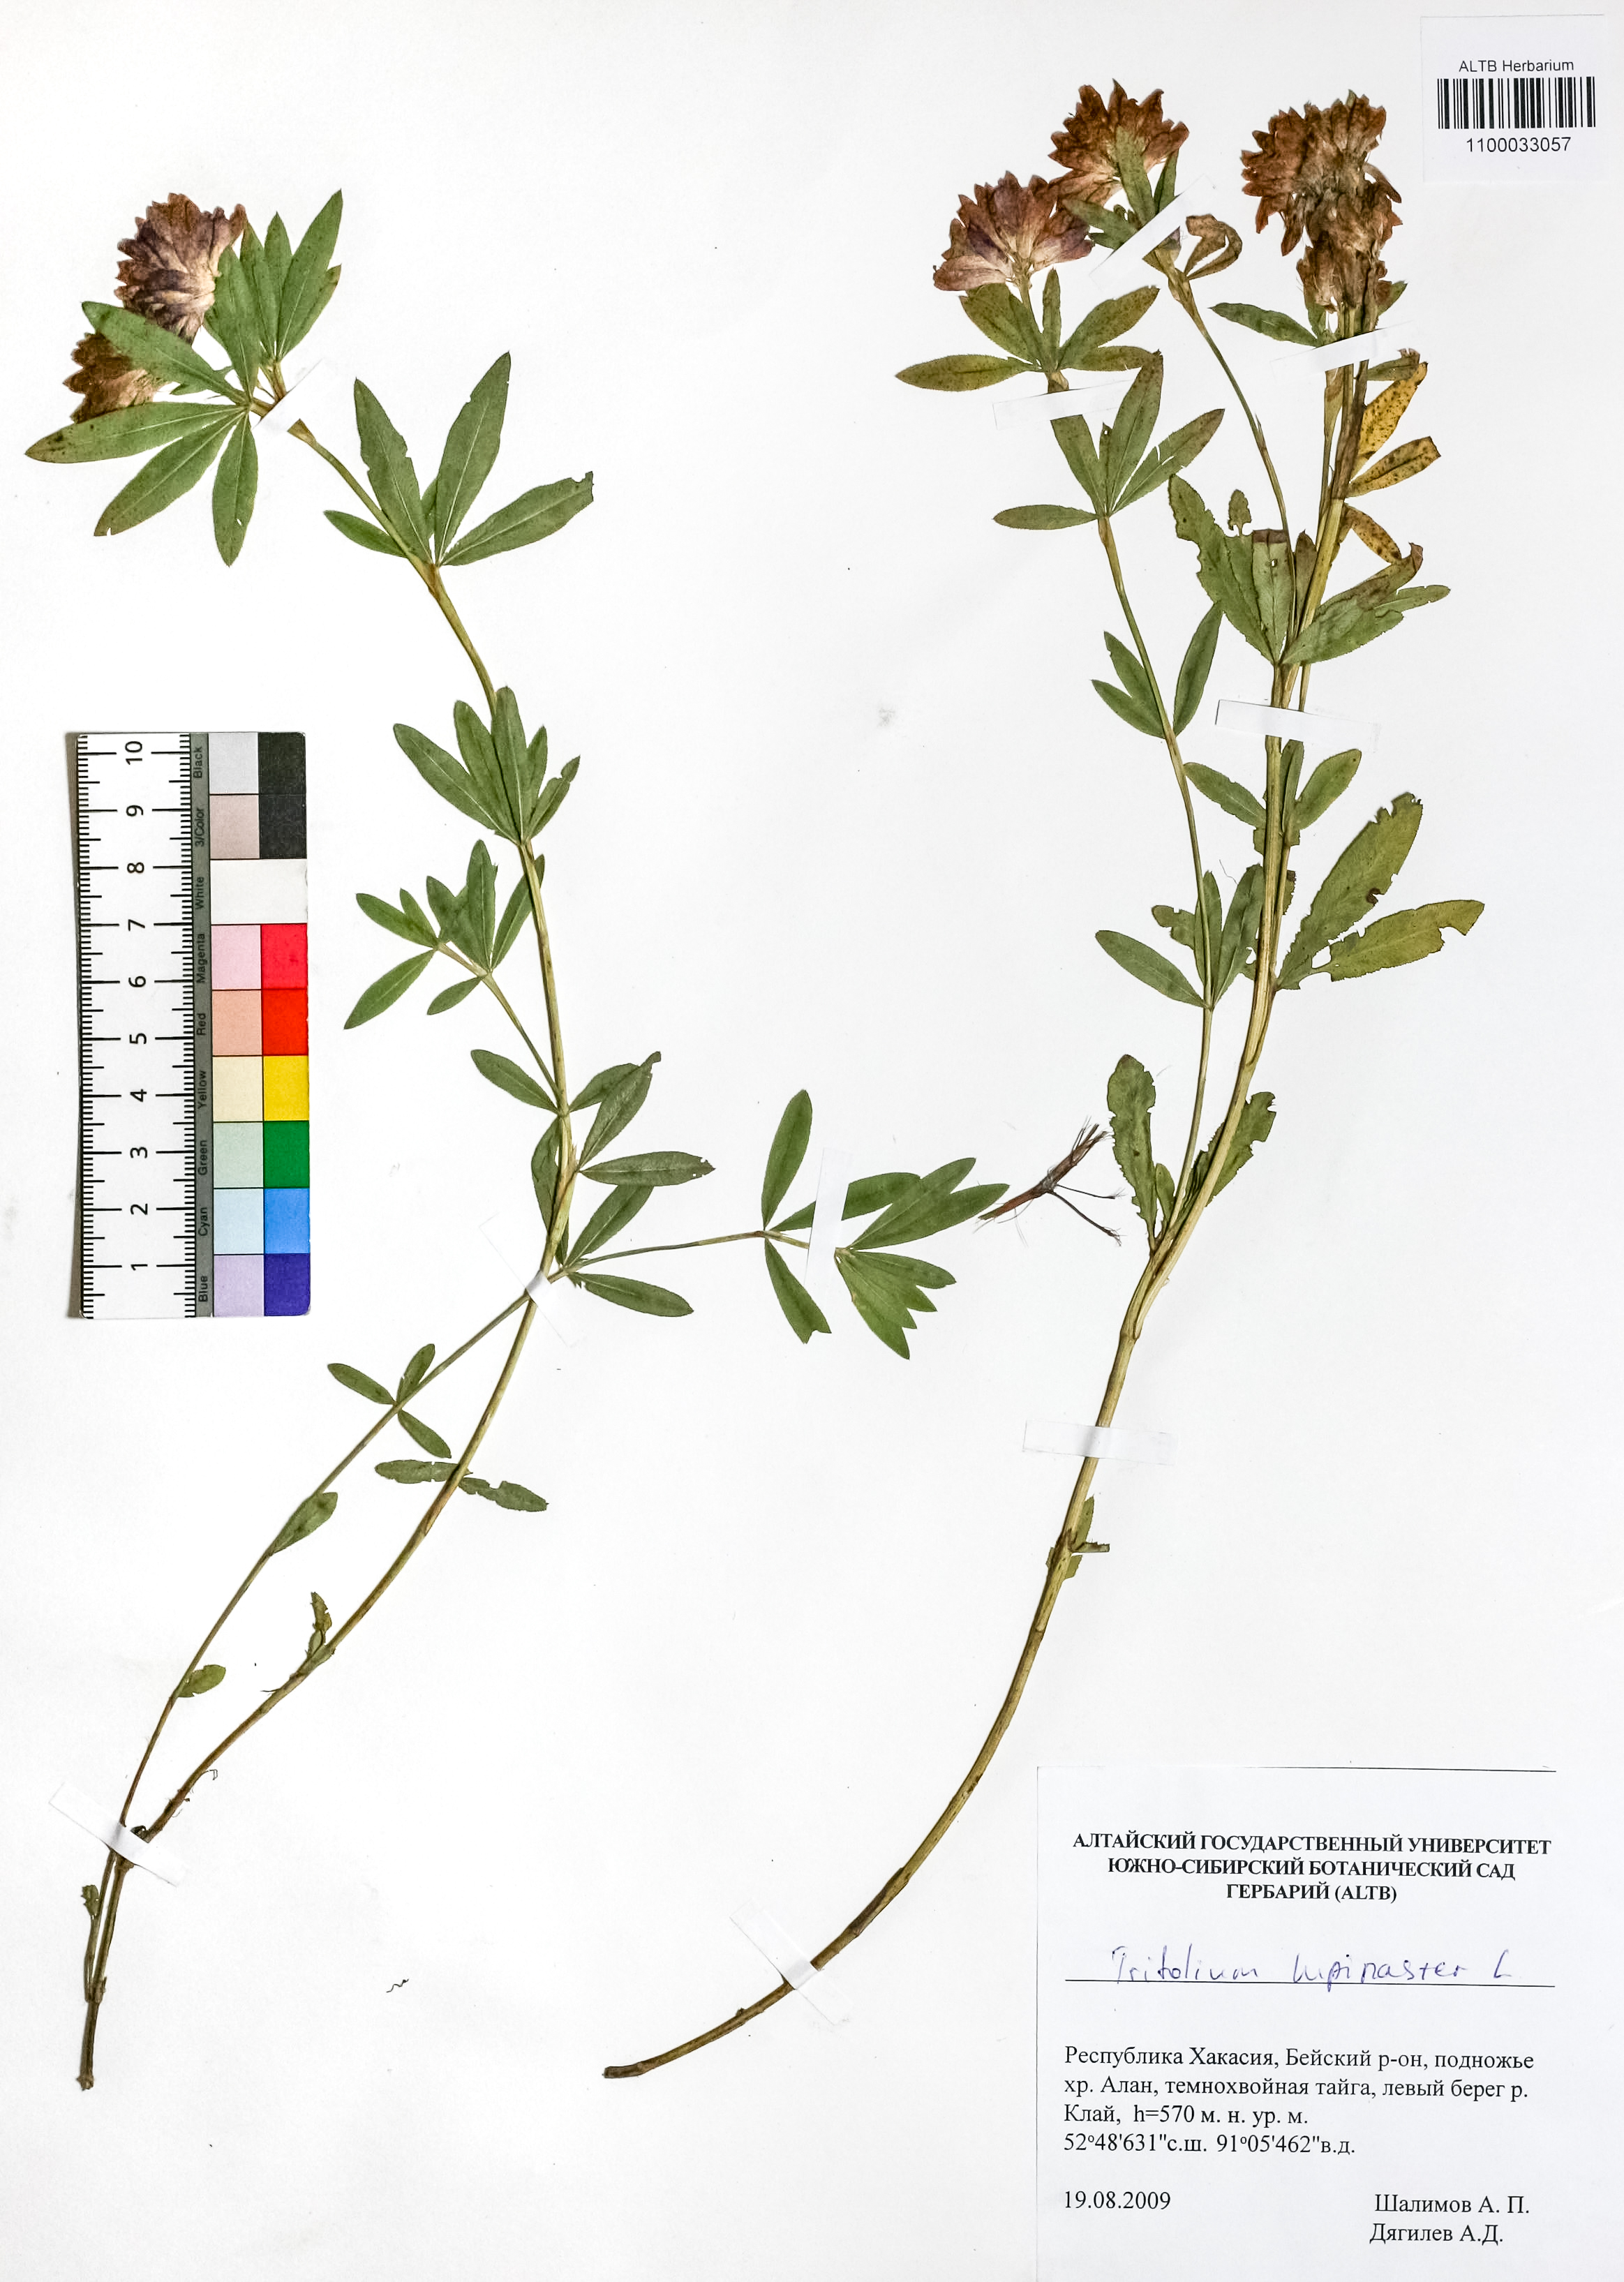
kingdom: Plantae
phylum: Tracheophyta
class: Magnoliopsida
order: Fabales
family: Fabaceae
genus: Trifolium
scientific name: Trifolium lupinaster
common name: Lupine clover
